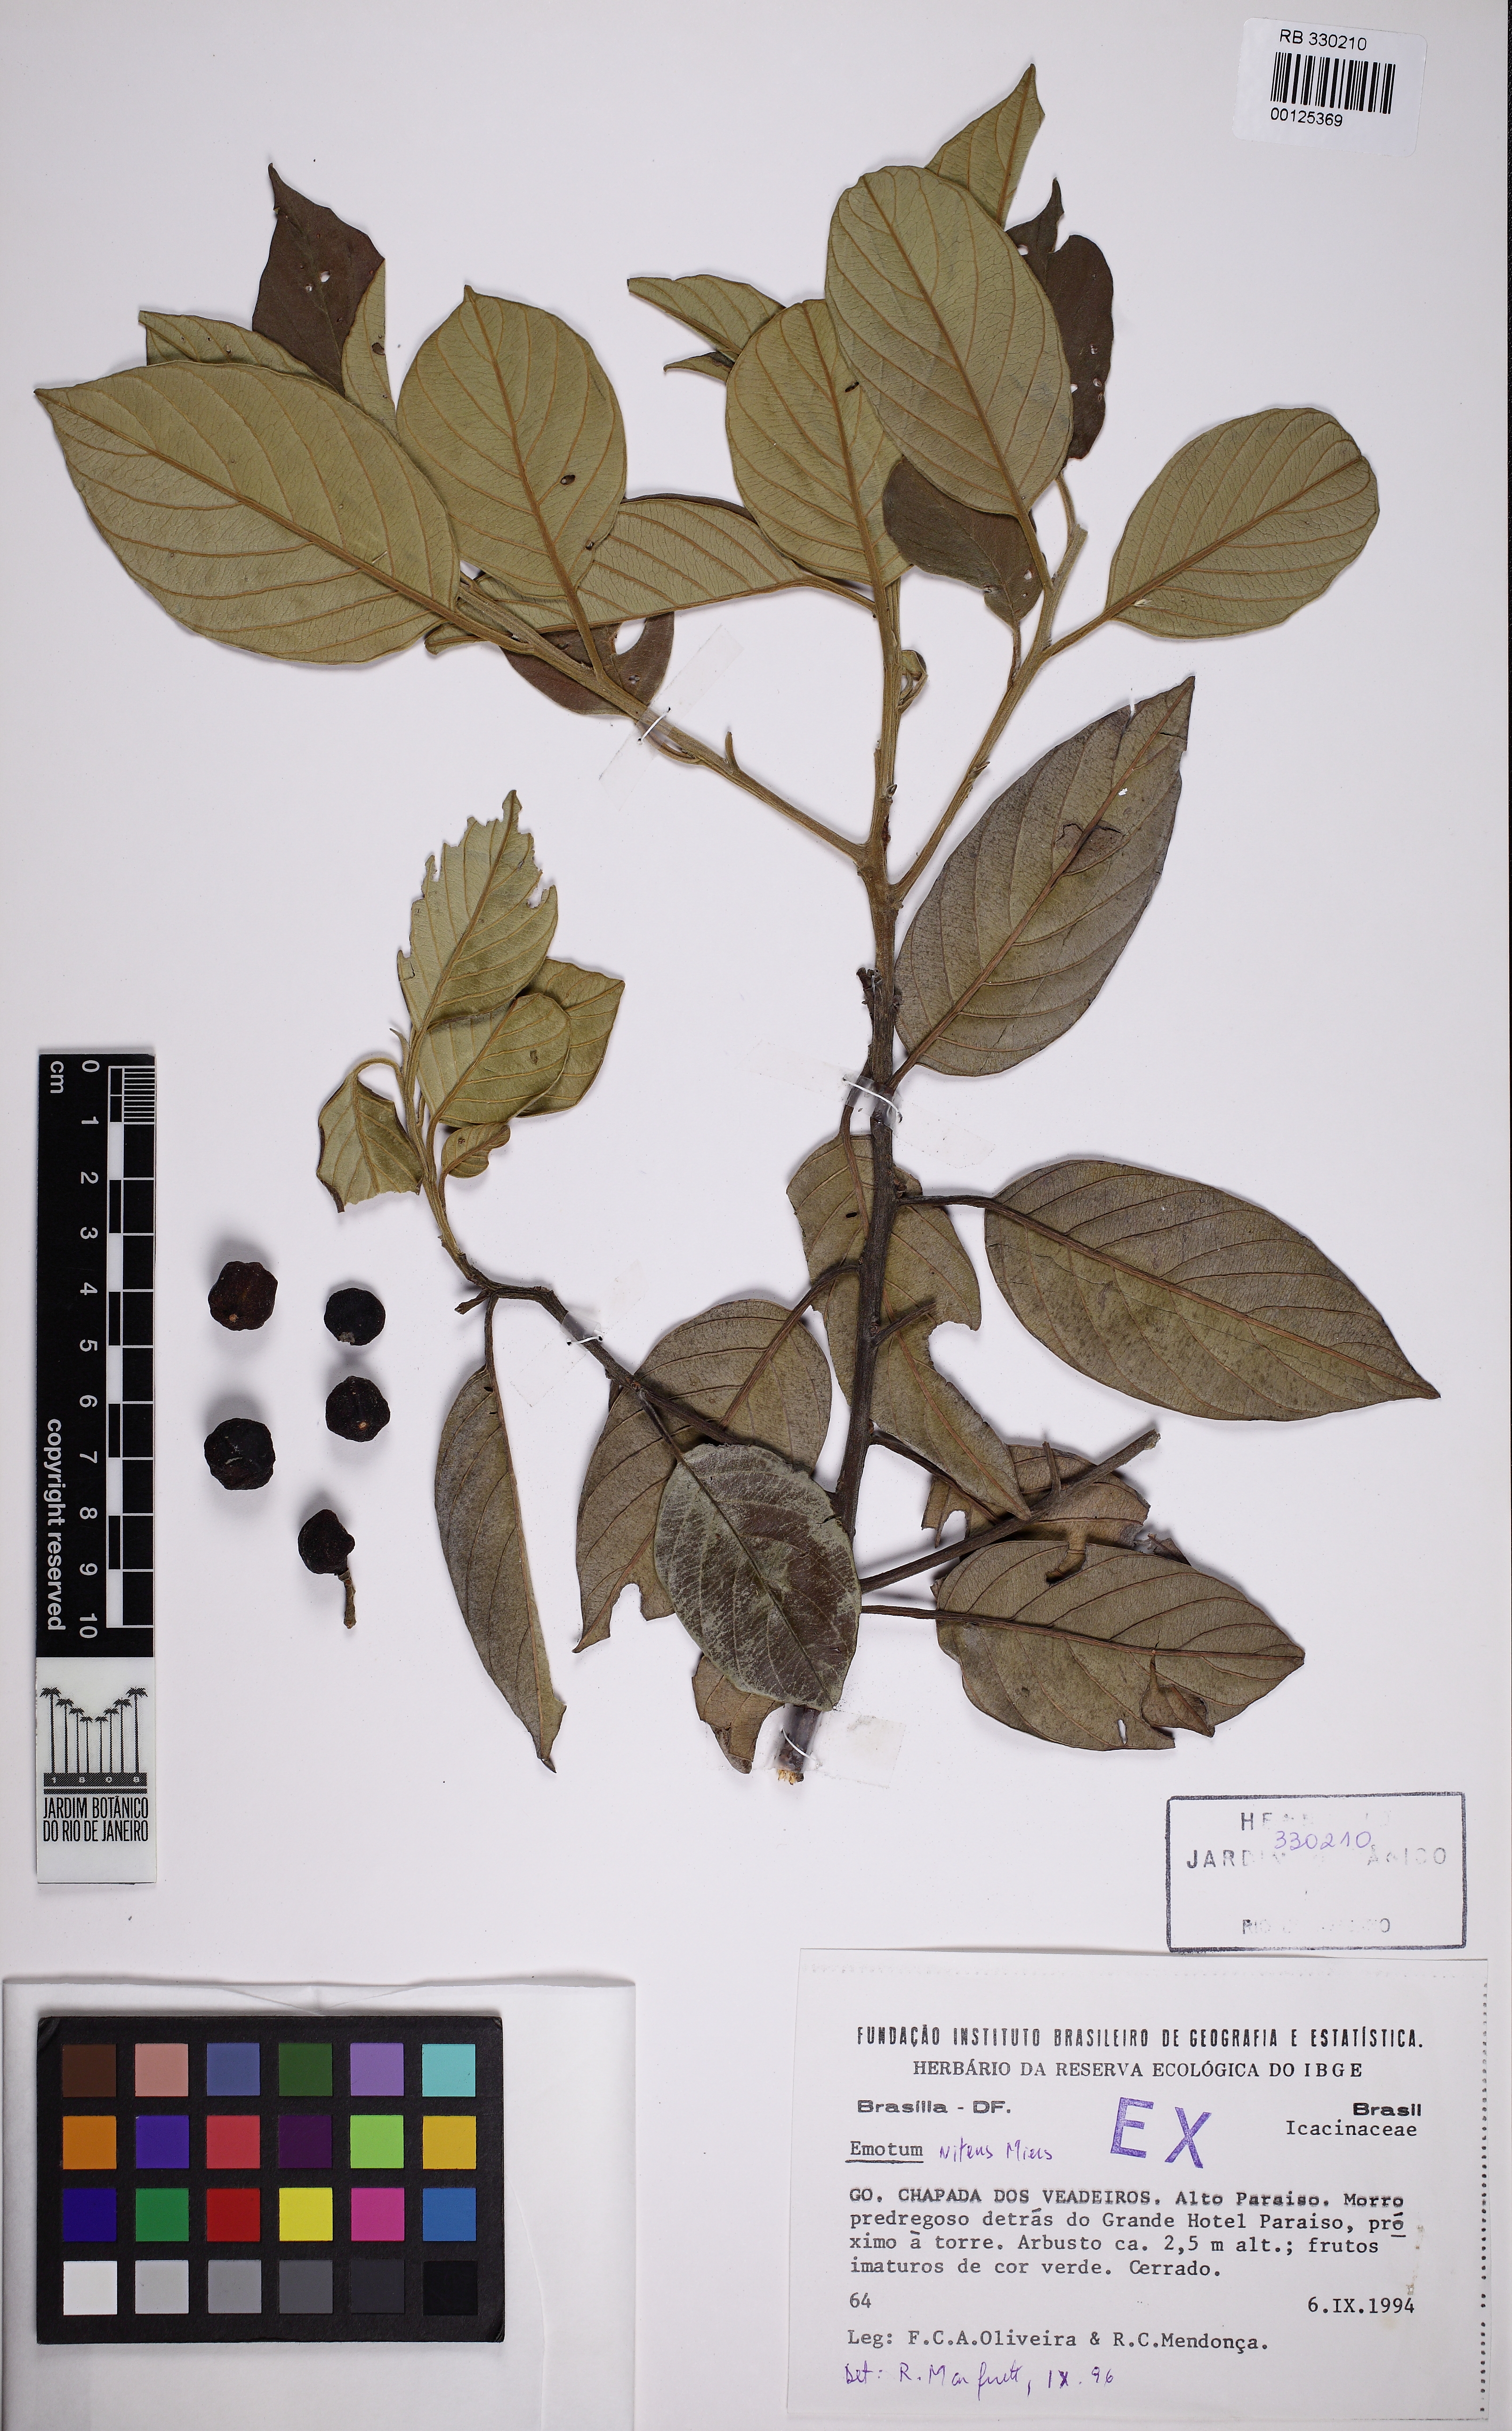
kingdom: Plantae
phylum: Tracheophyta
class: Magnoliopsida
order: Metteniusales
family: Metteniusaceae
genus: Emmotum
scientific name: Emmotum nitens
